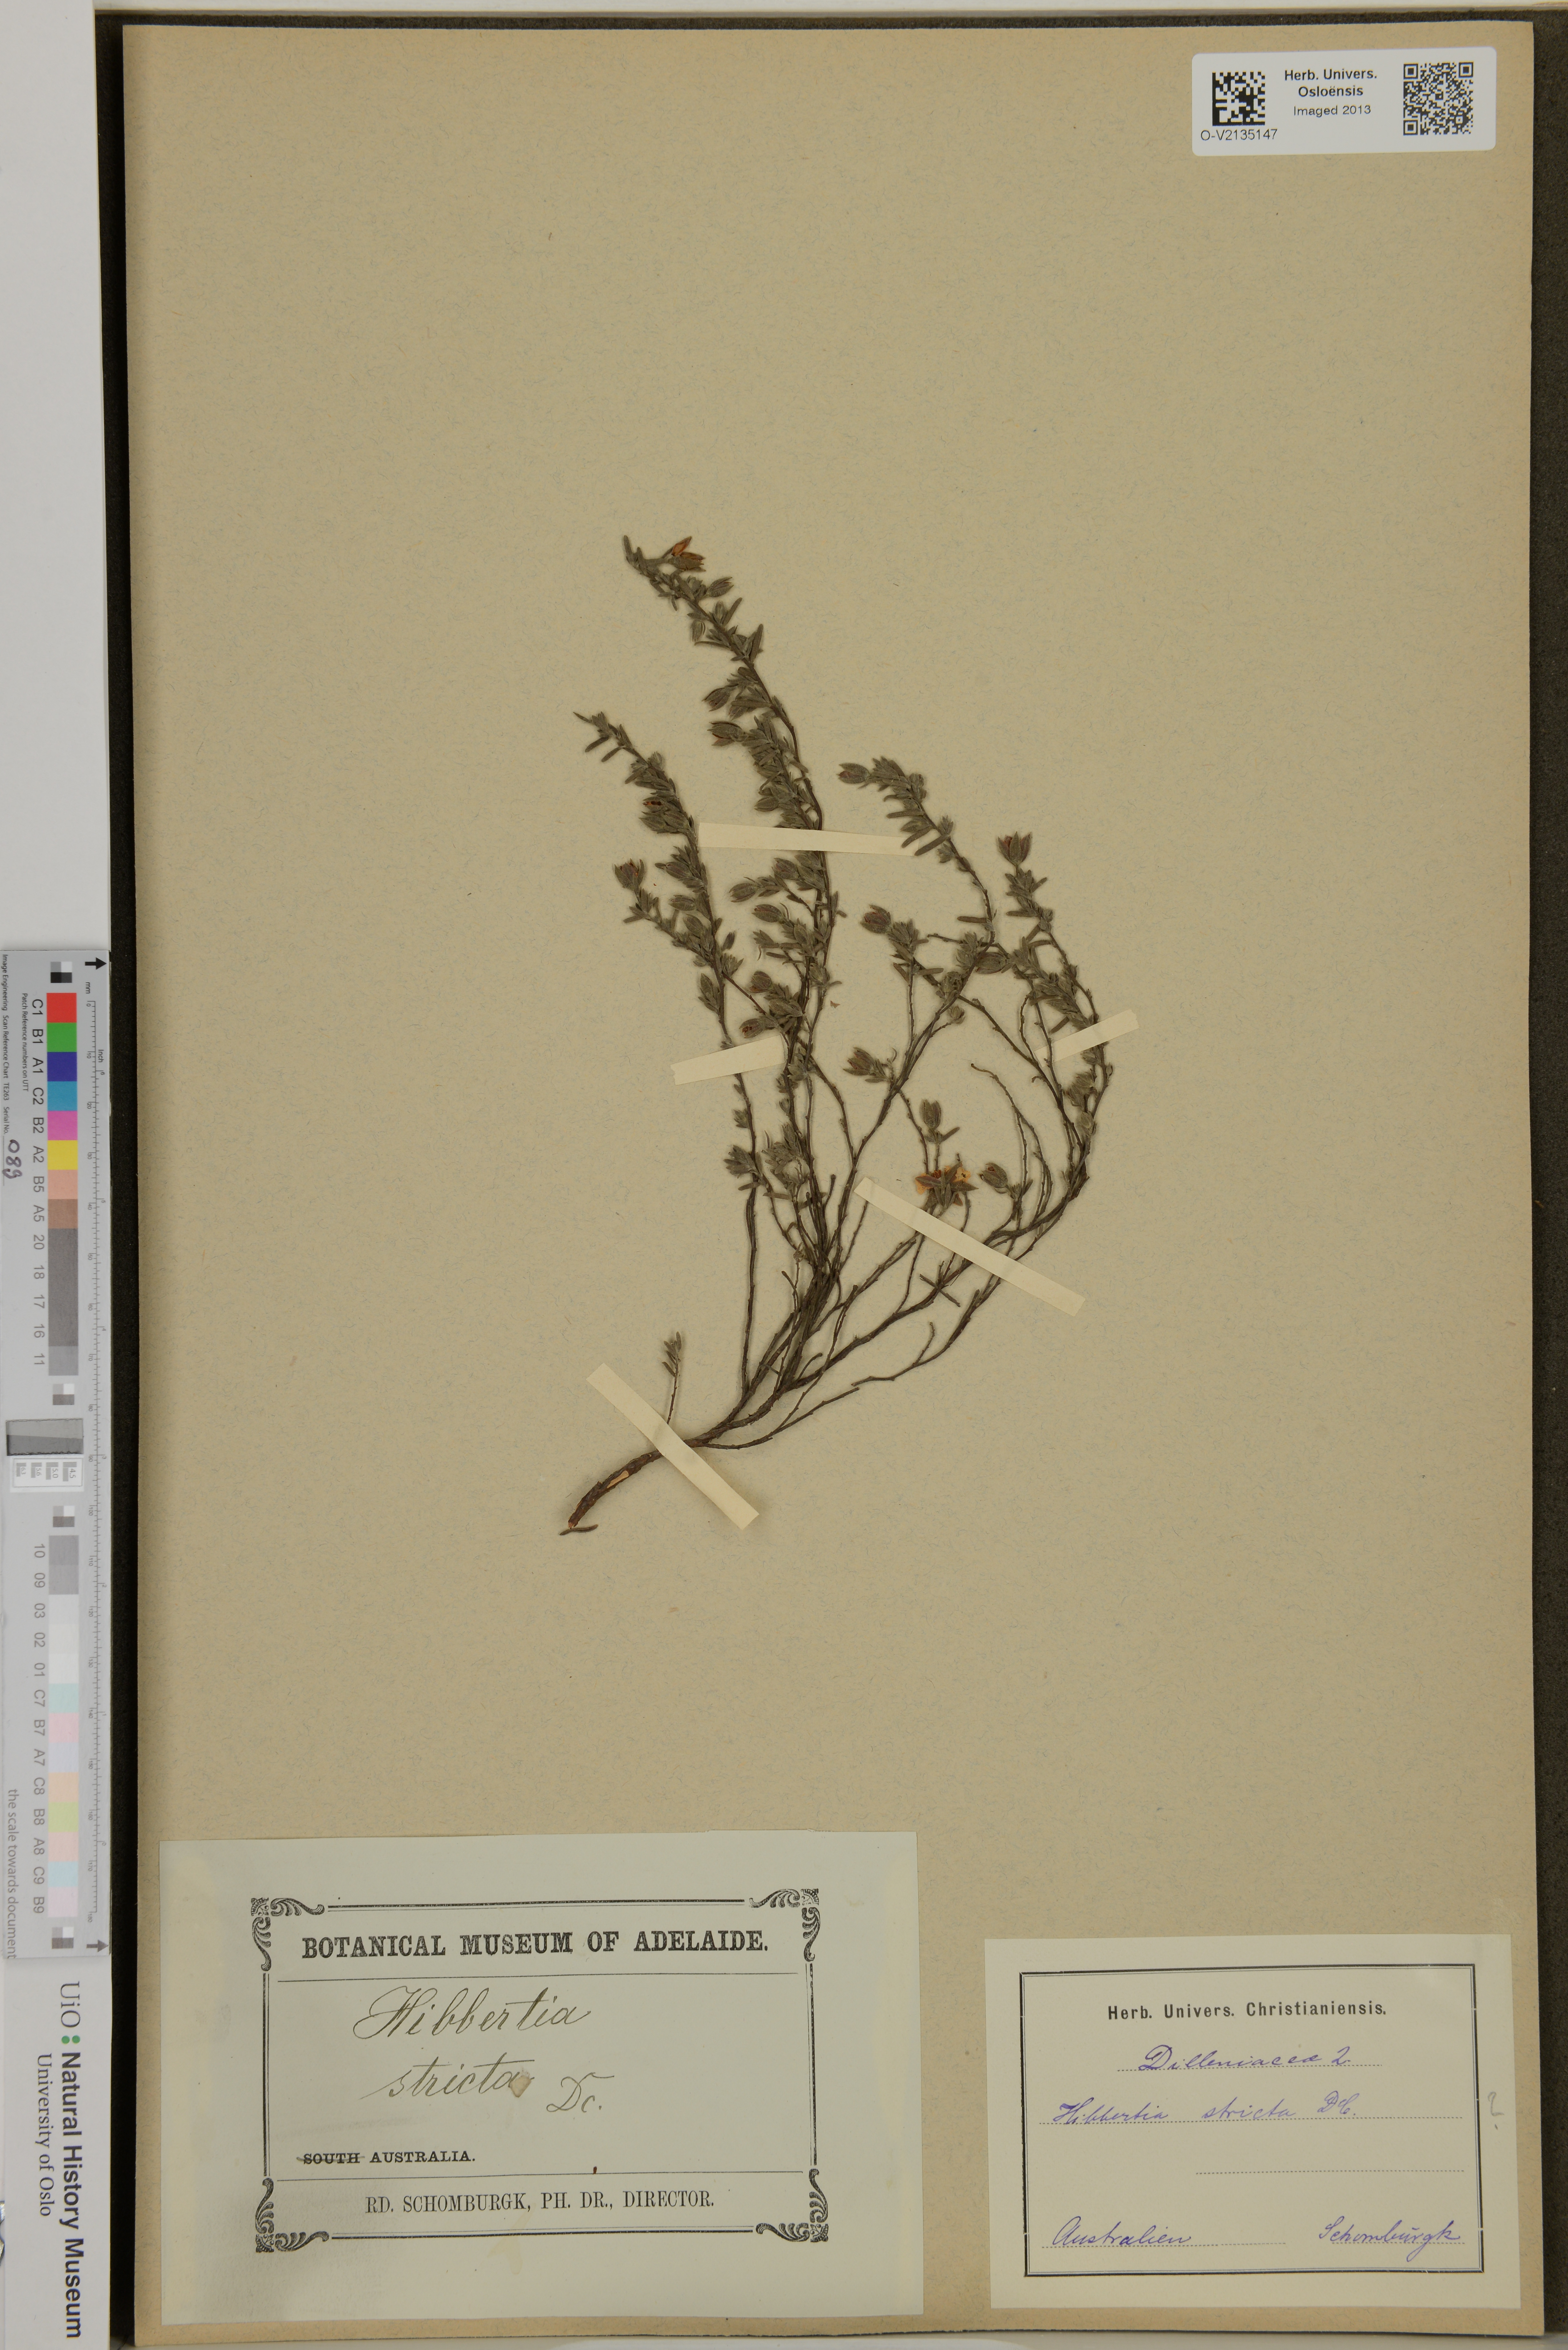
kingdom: Plantae
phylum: Tracheophyta
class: Magnoliopsida
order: Dilleniales
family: Dilleniaceae
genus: Hibbertia
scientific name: Hibbertia stricta
